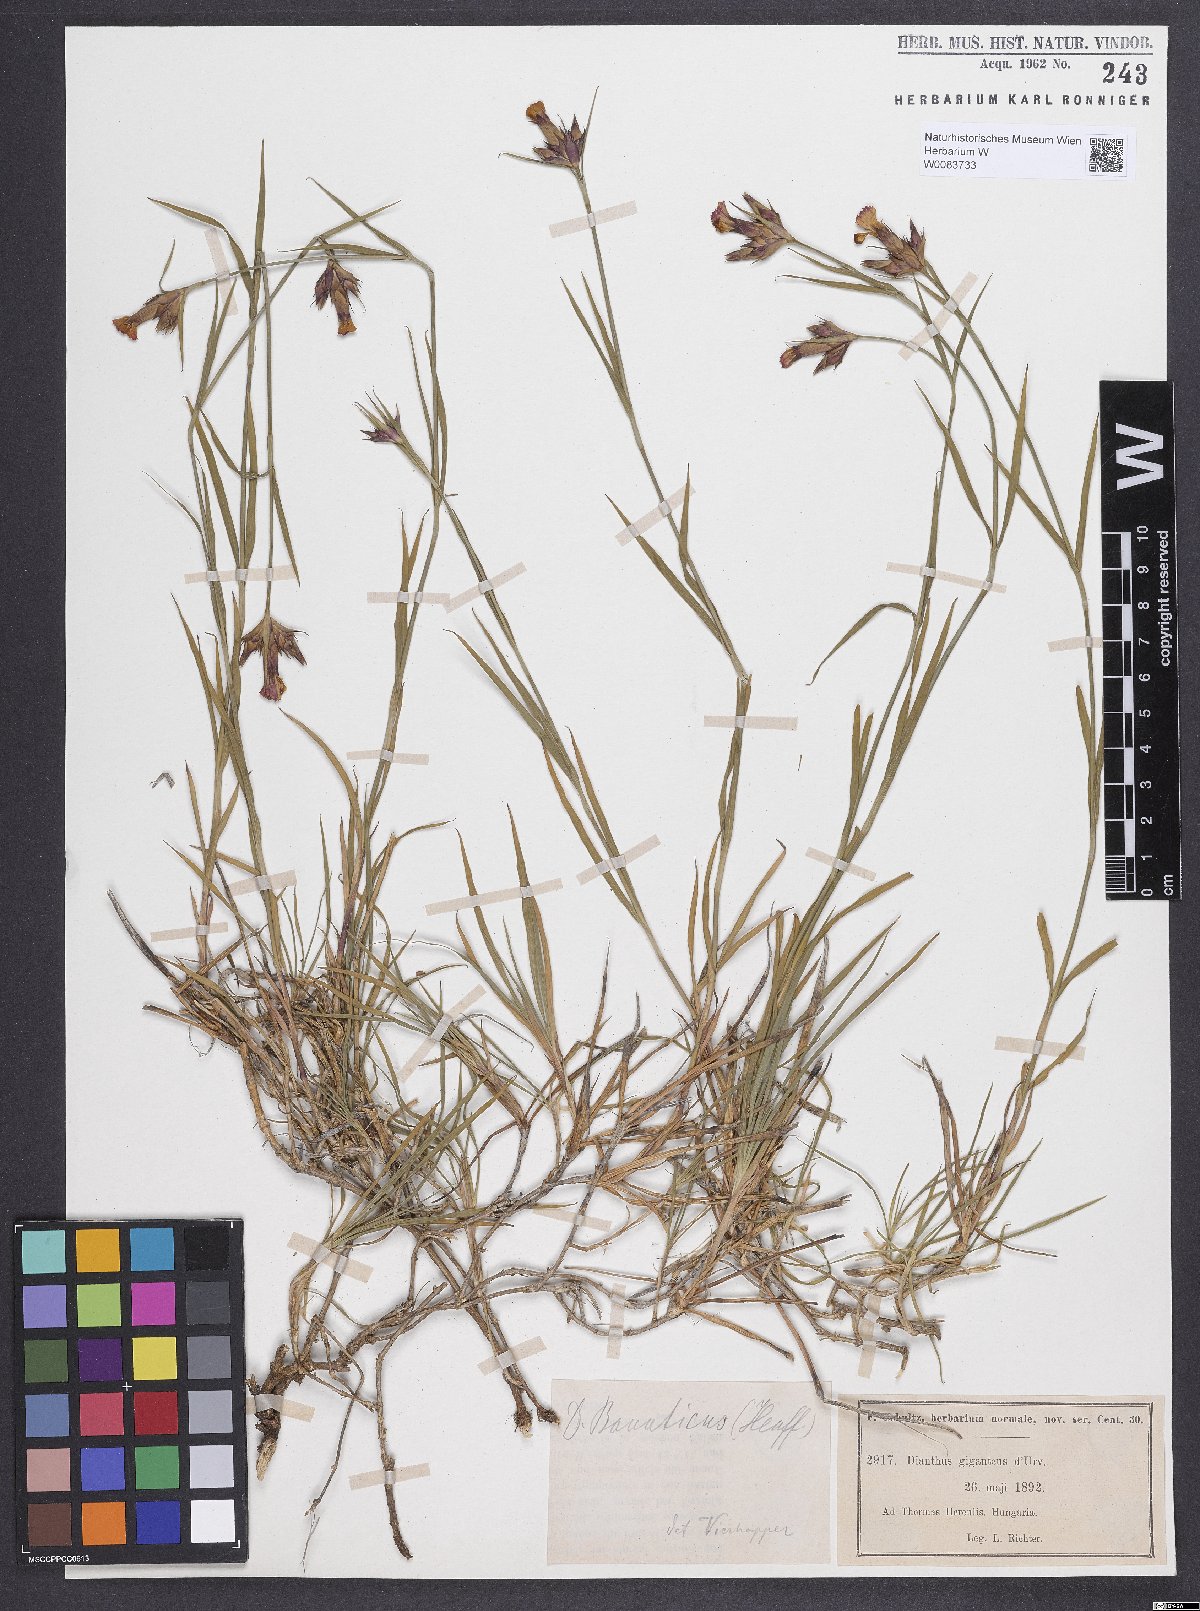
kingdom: Plantae
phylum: Tracheophyta
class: Magnoliopsida
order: Caryophyllales
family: Caryophyllaceae
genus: Dianthus
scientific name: Dianthus giganteus
